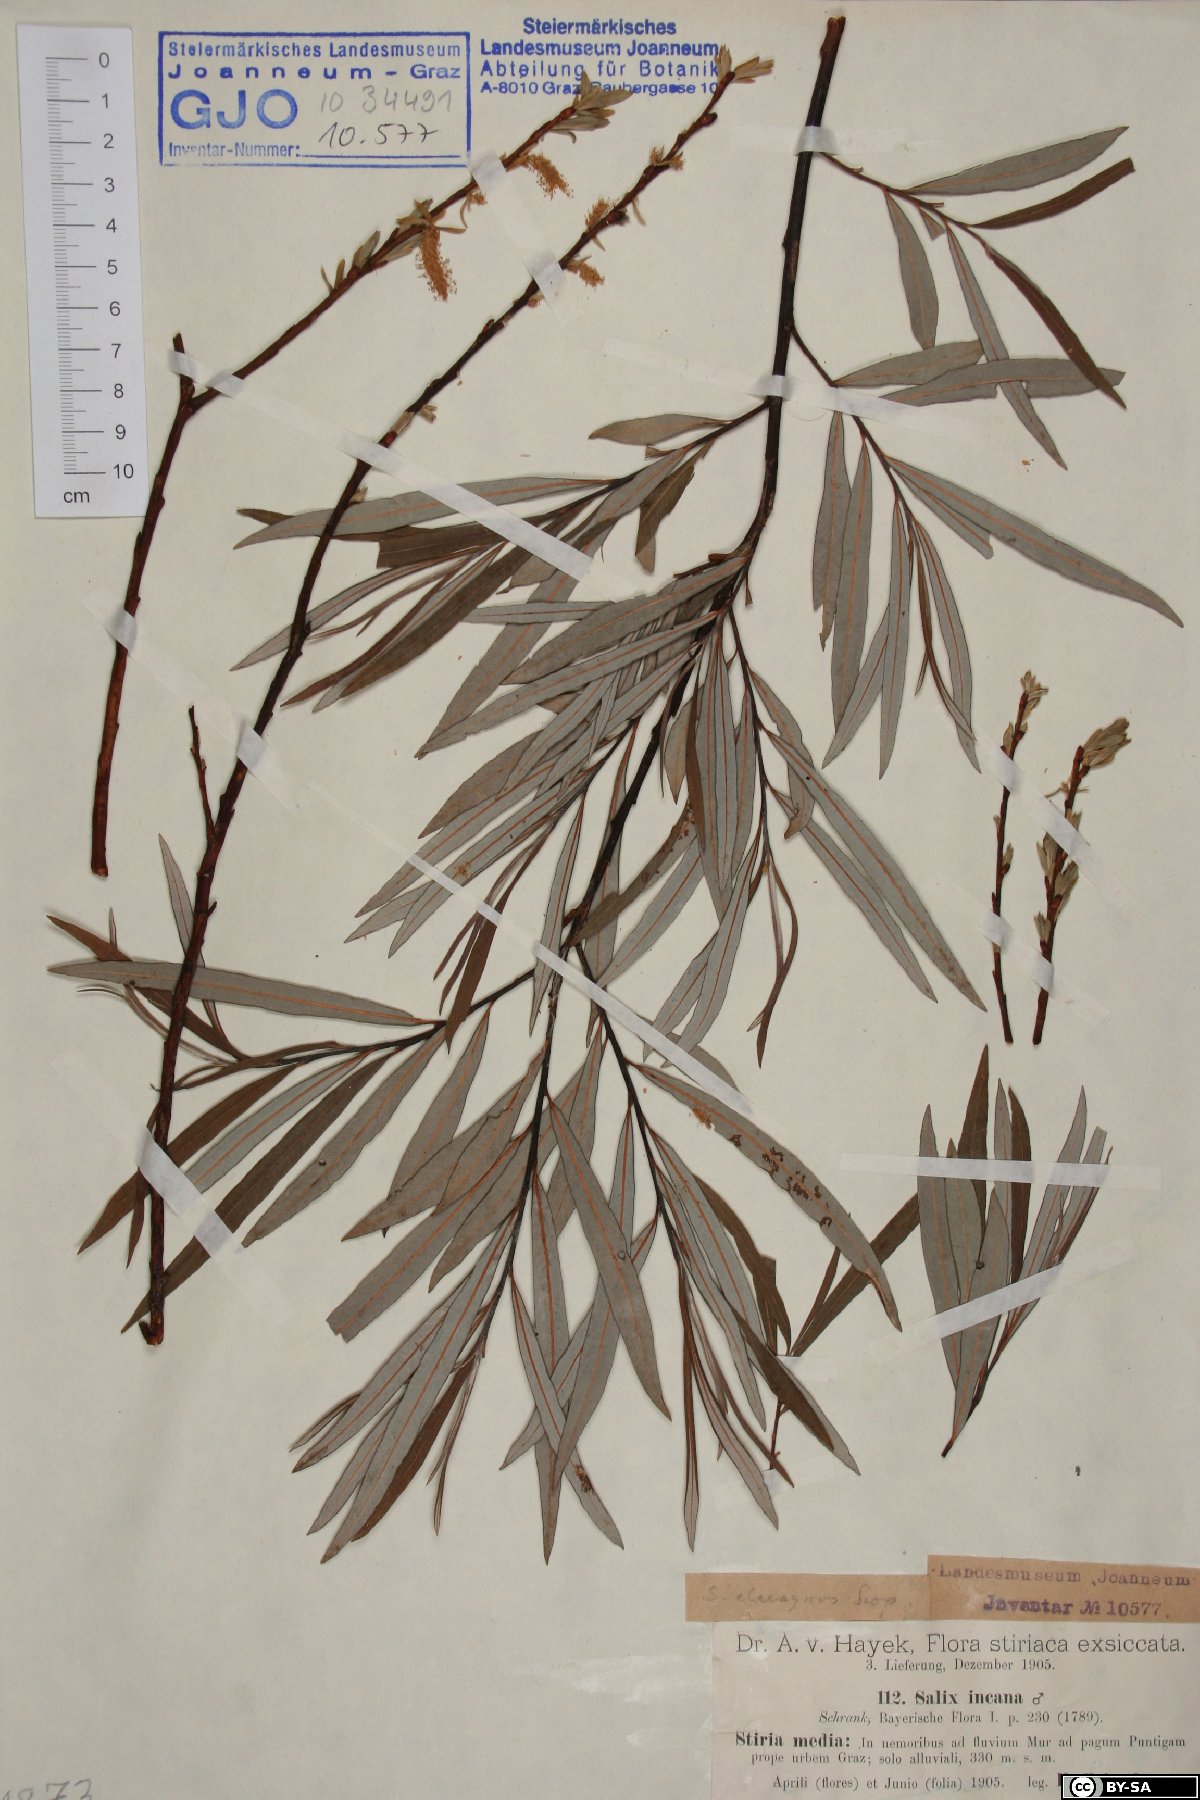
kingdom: Plantae
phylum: Tracheophyta
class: Magnoliopsida
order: Malpighiales
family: Salicaceae
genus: Salix
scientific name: Salix eleagnos
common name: Elaeagnus willow
